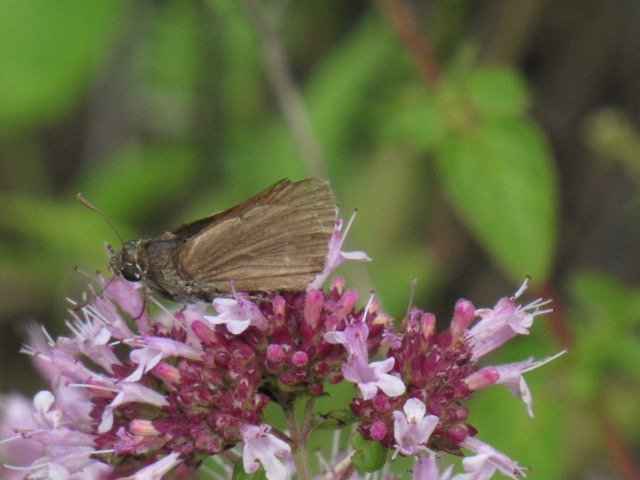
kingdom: Animalia
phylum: Arthropoda
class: Insecta
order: Lepidoptera
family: Hesperiidae
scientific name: Hesperiidae
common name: Skippers
